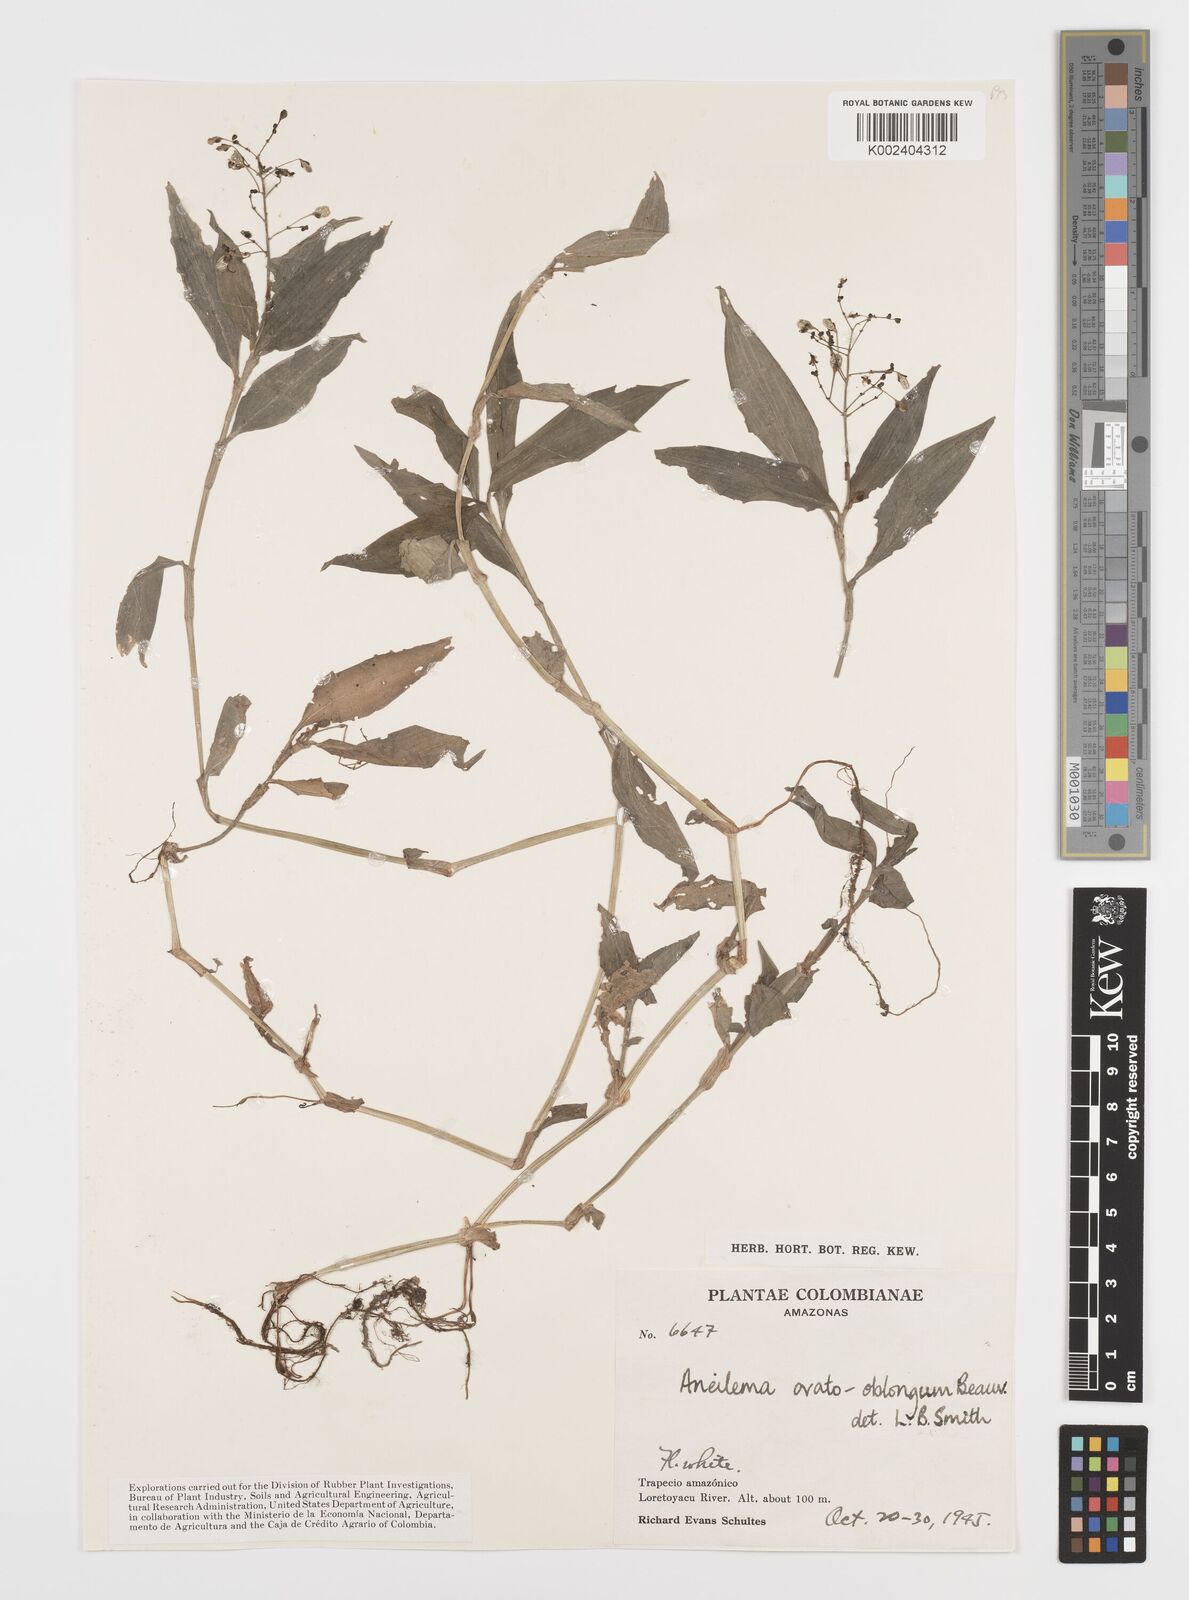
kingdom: Plantae
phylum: Tracheophyta
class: Liliopsida
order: Commelinales
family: Commelinaceae
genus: Aneilema
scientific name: Aneilema umbrosum
